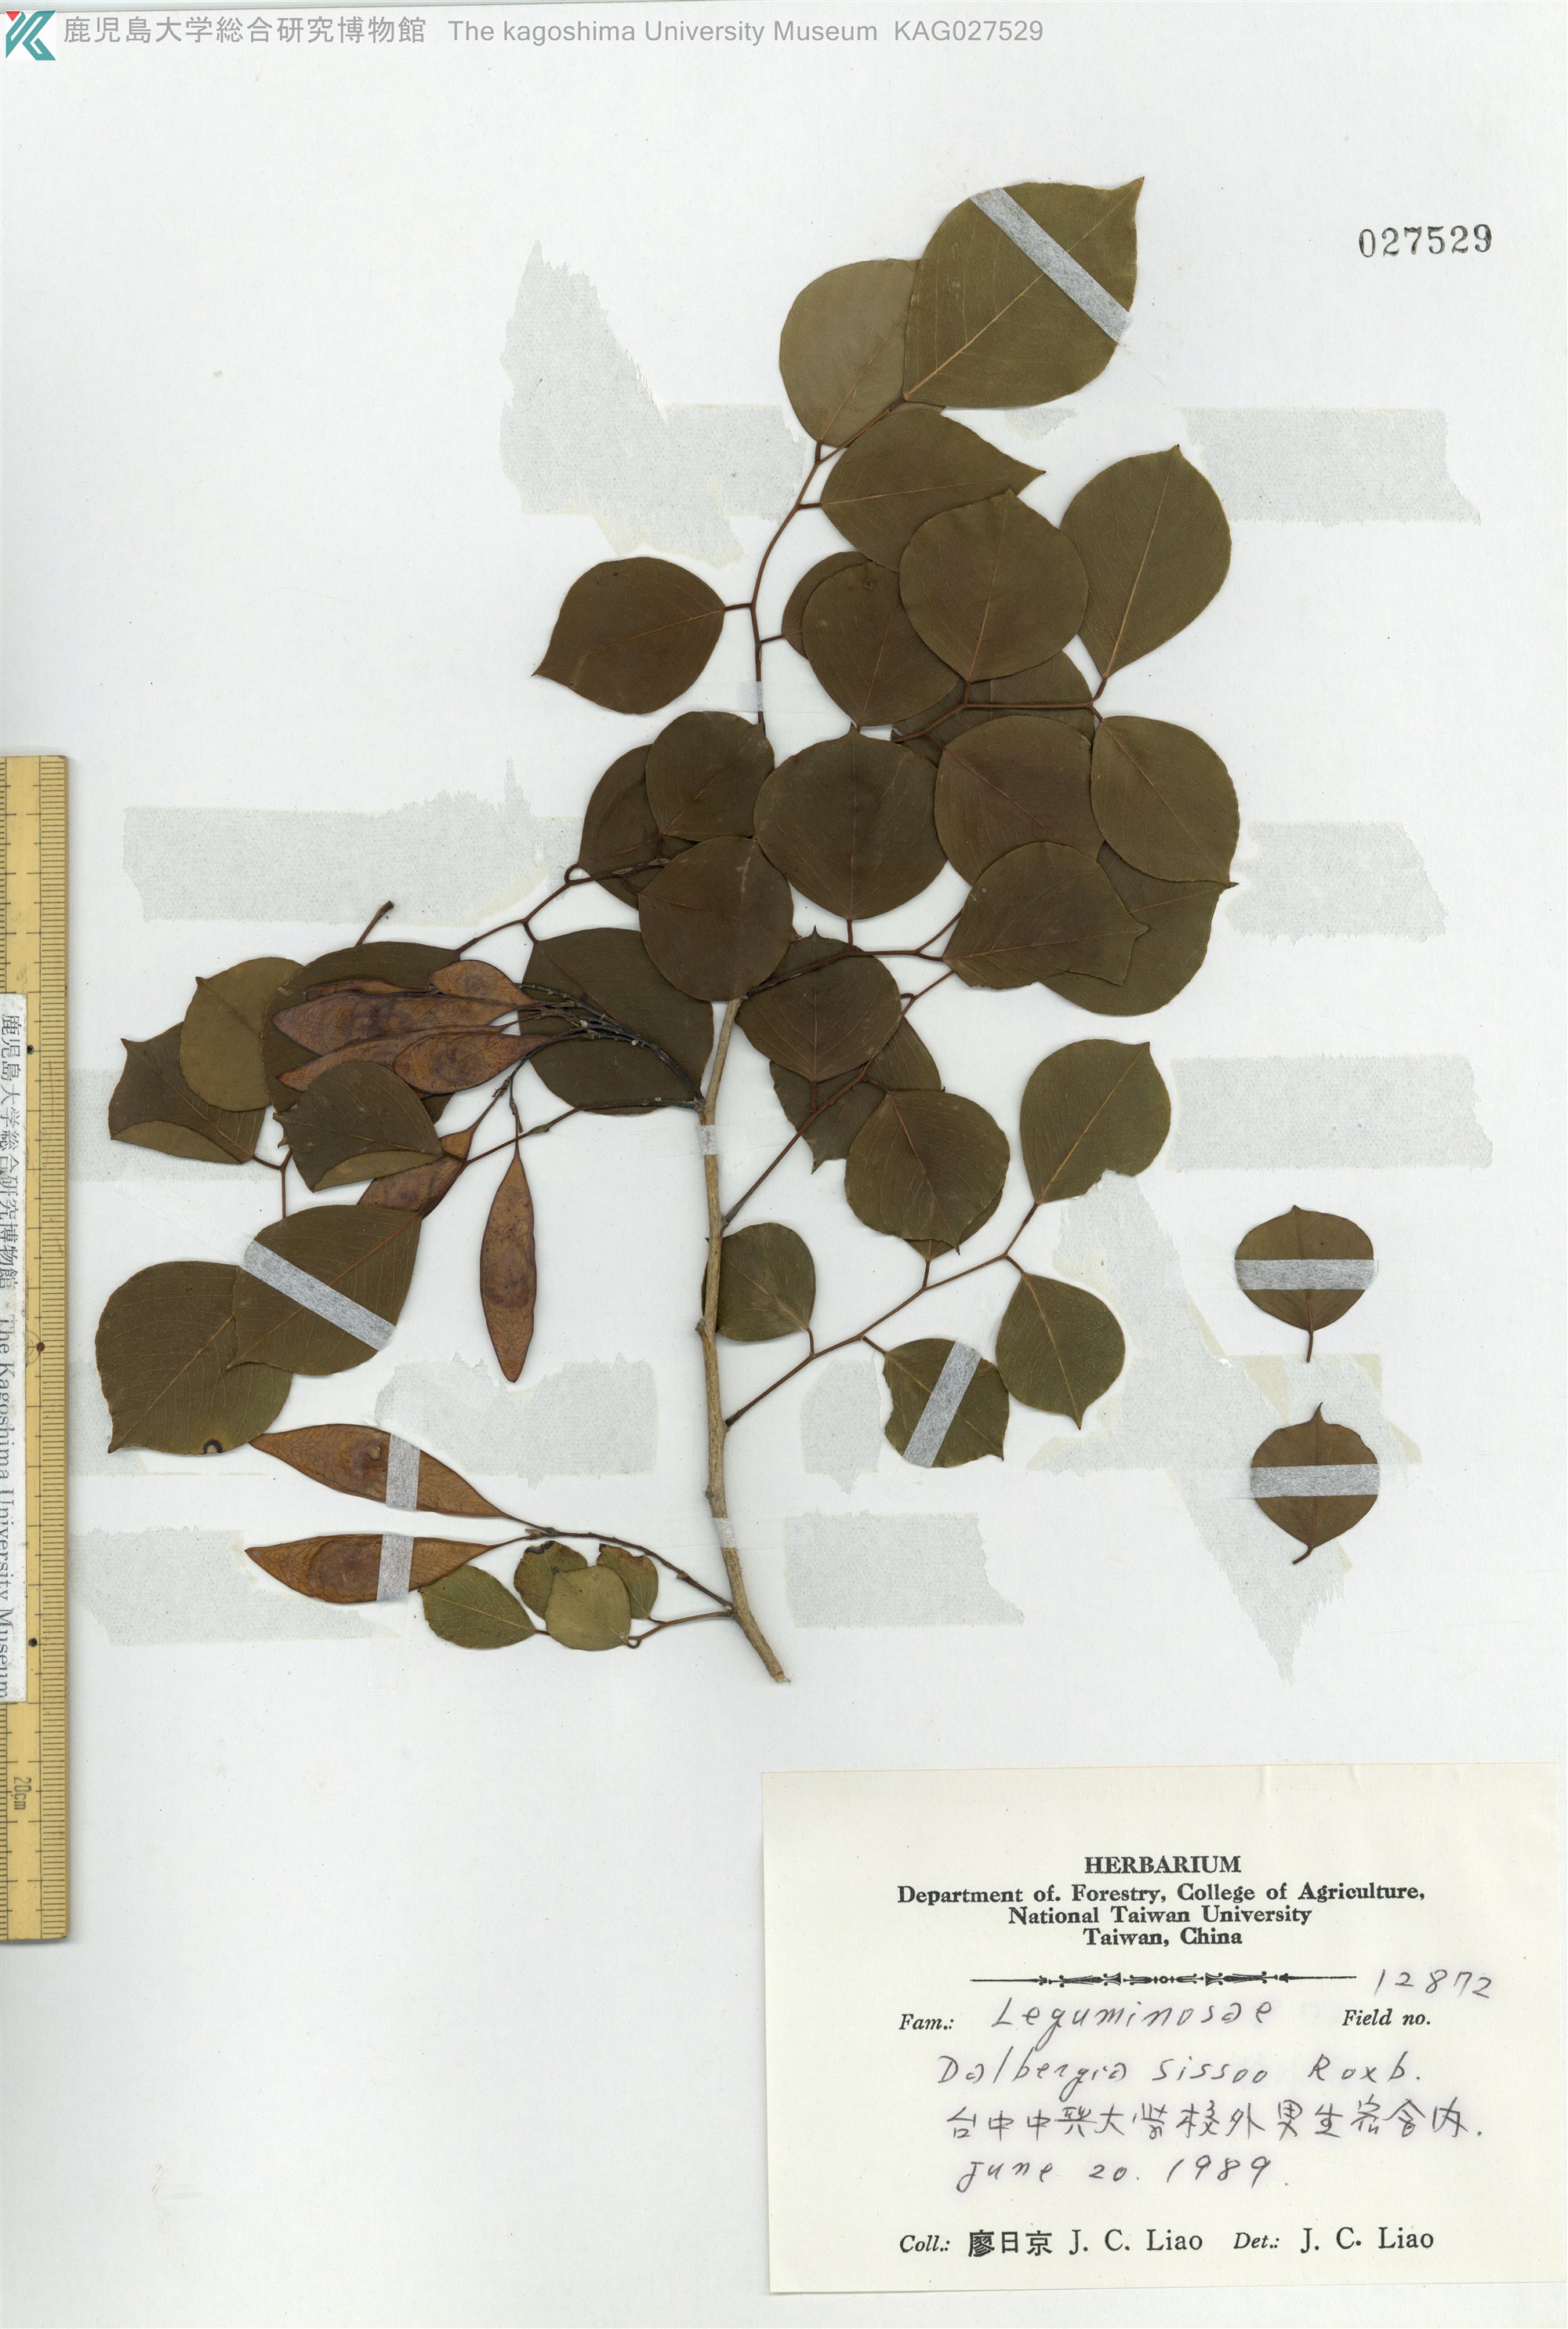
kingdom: Plantae
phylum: Tracheophyta
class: Magnoliopsida
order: Fabales
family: Fabaceae
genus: Dalbergia
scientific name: Dalbergia sissoo
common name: Indian rosewood
